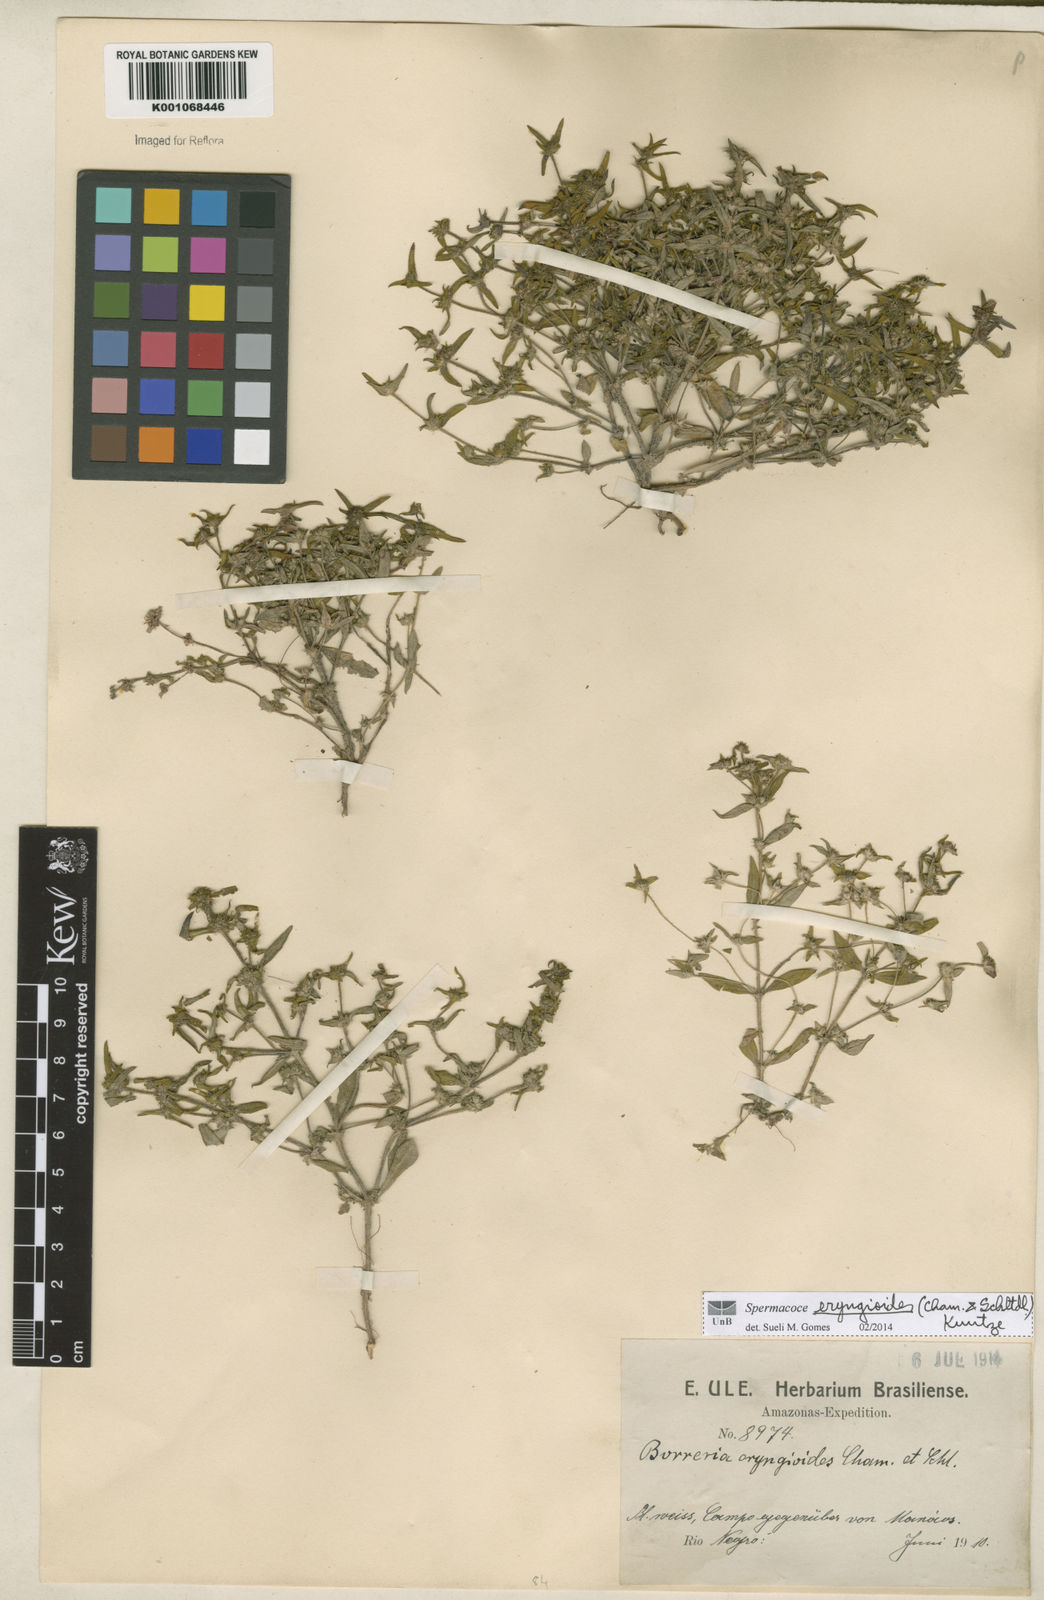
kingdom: Plantae
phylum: Tracheophyta
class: Magnoliopsida
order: Gentianales
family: Rubiaceae
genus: Spermacoce
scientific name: Spermacoce eryngioides
